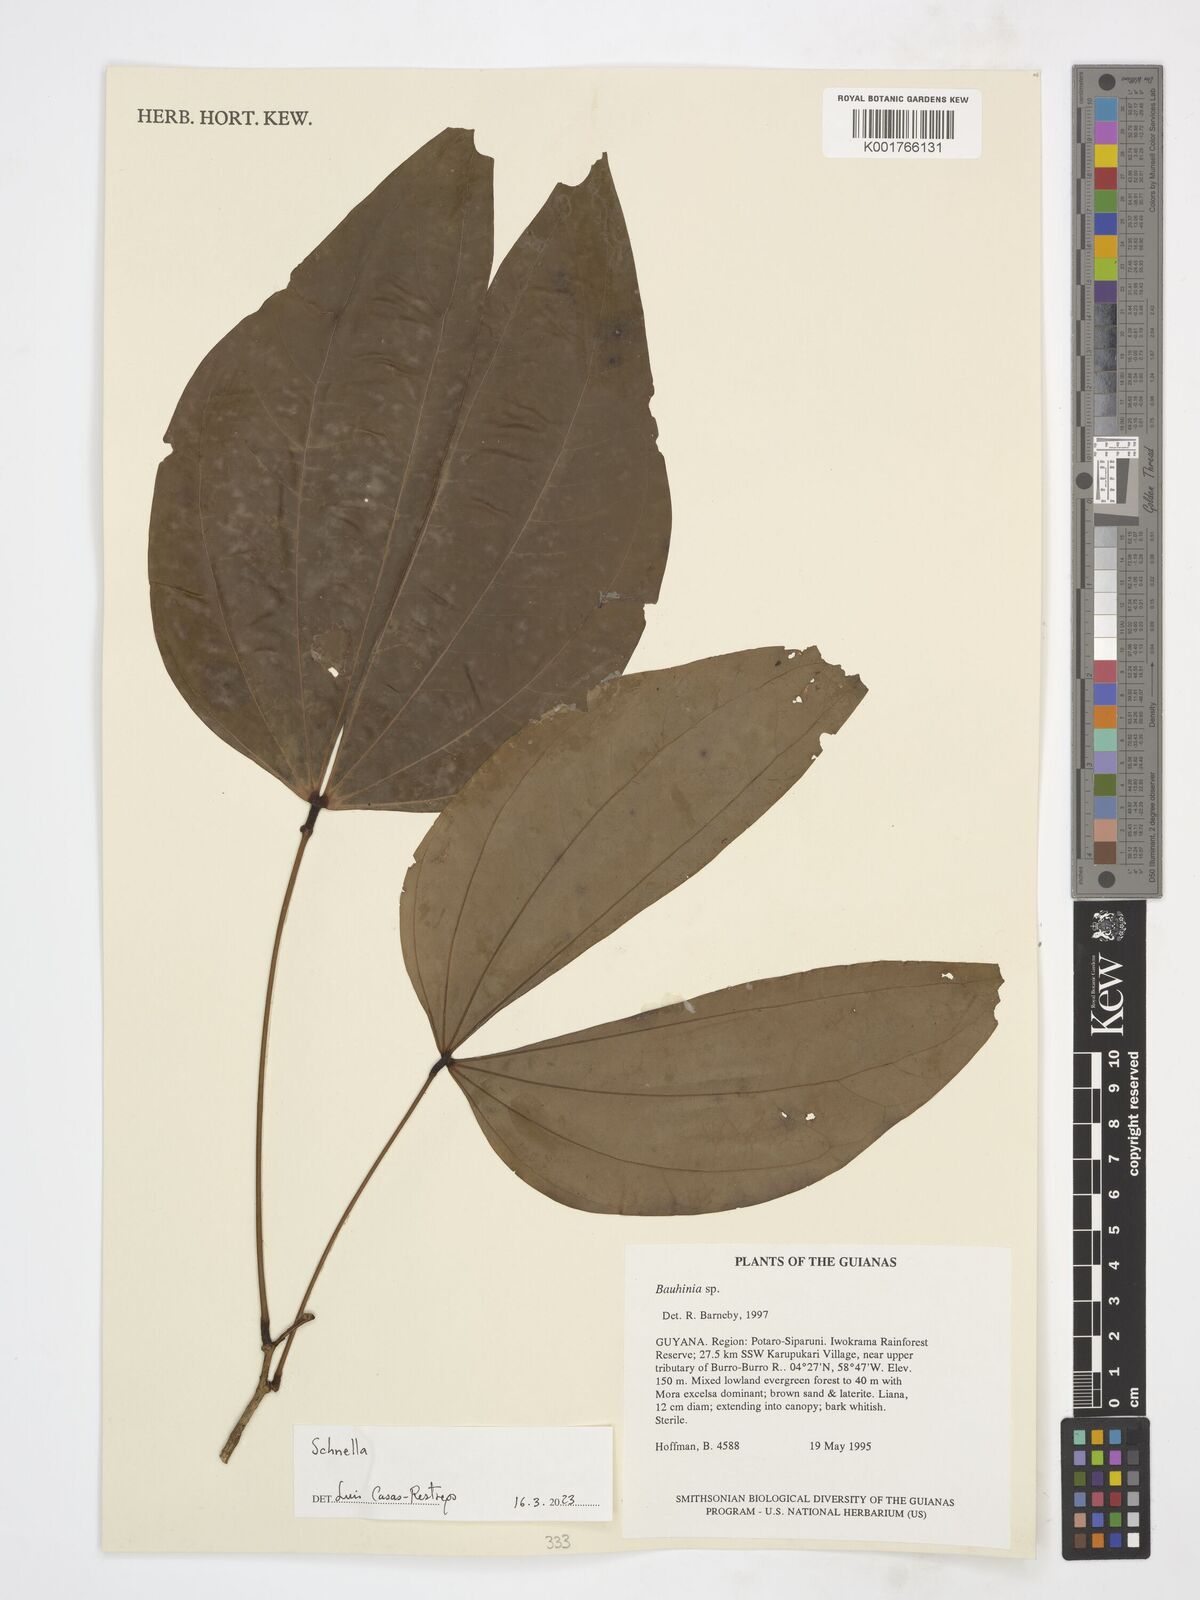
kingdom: Plantae
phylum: Tracheophyta
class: Magnoliopsida
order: Fabales
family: Fabaceae
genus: Schnella
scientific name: Schnella
